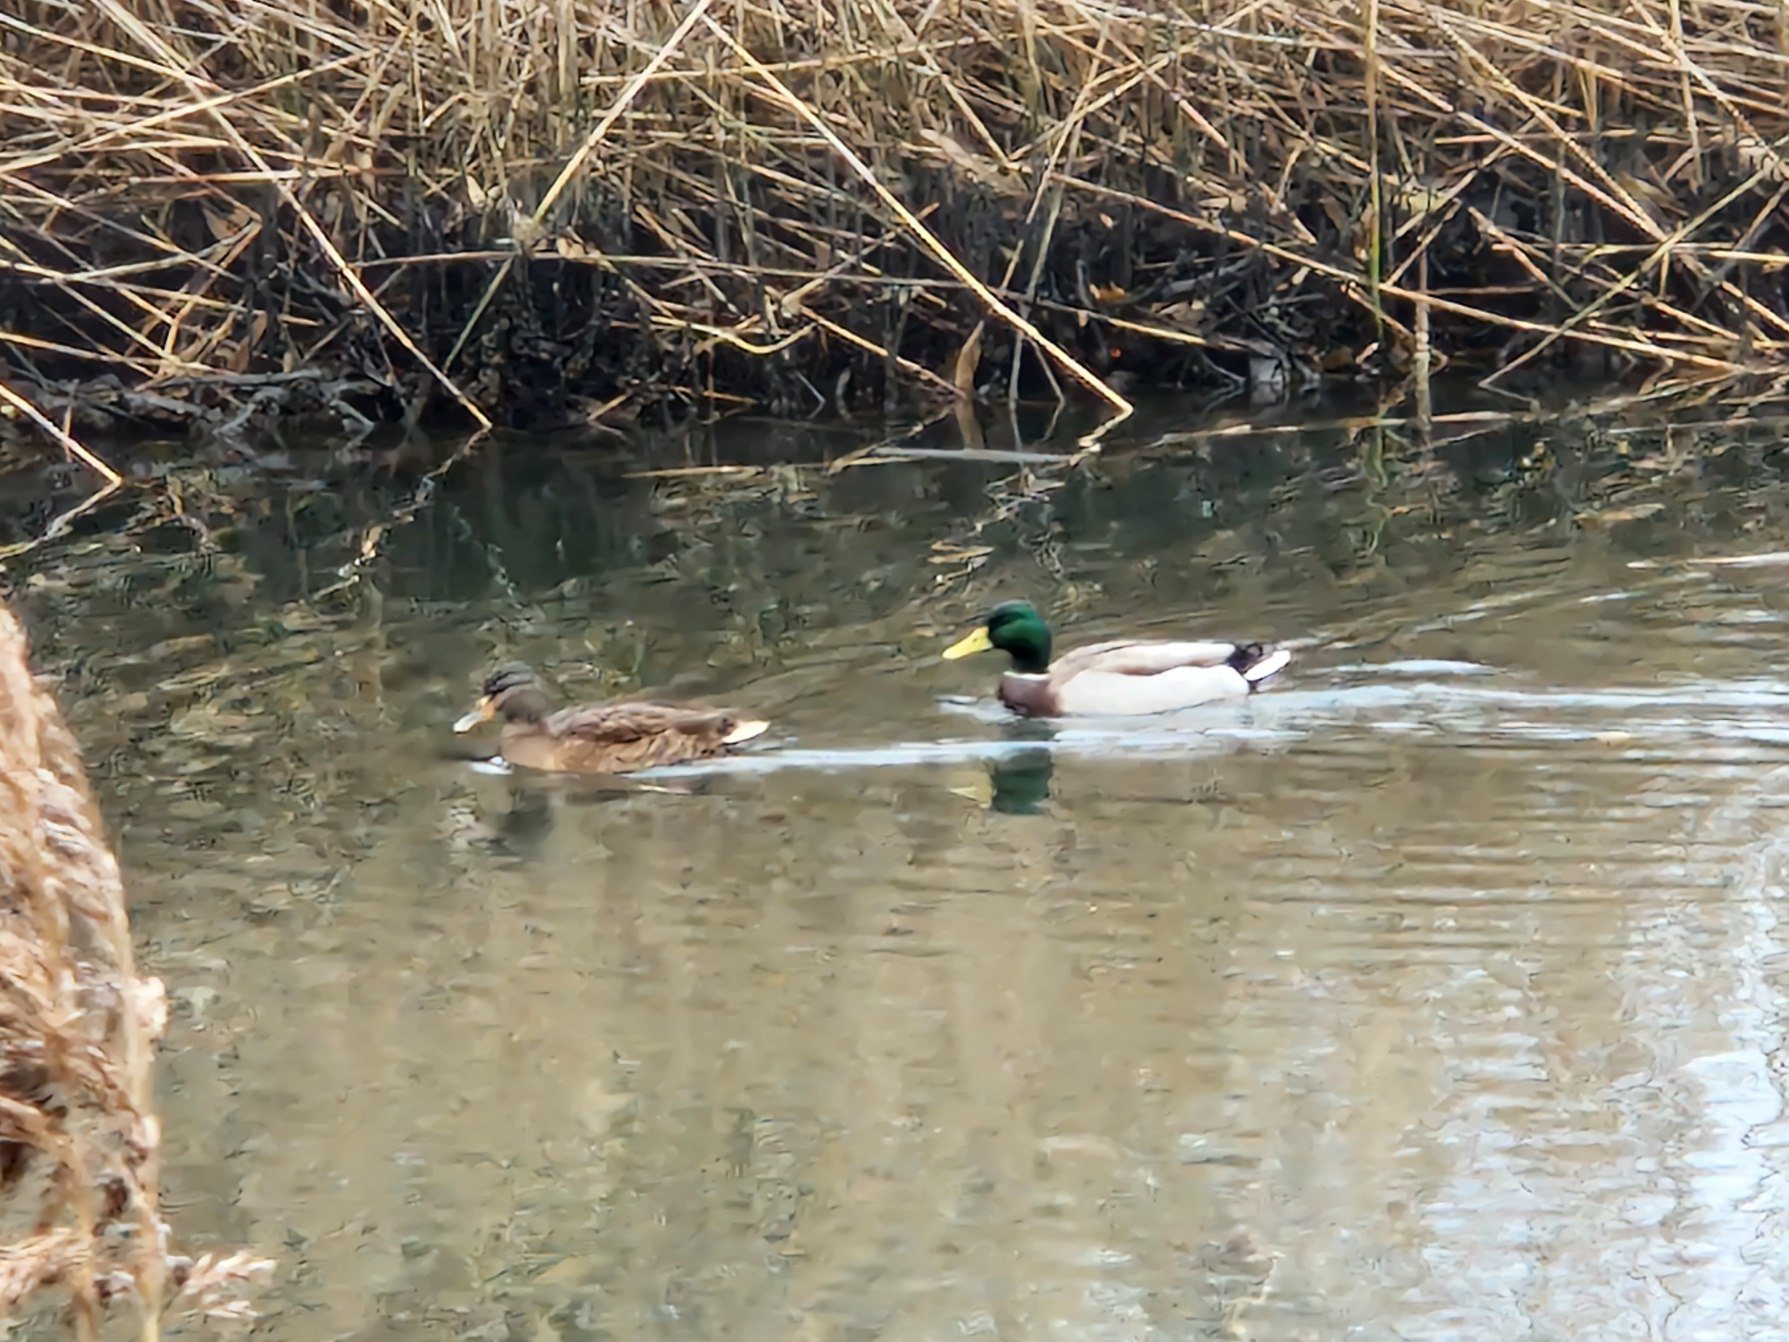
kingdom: Animalia
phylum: Chordata
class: Aves
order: Anseriformes
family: Anatidae
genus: Anas
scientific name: Anas platyrhynchos
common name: Gråand
